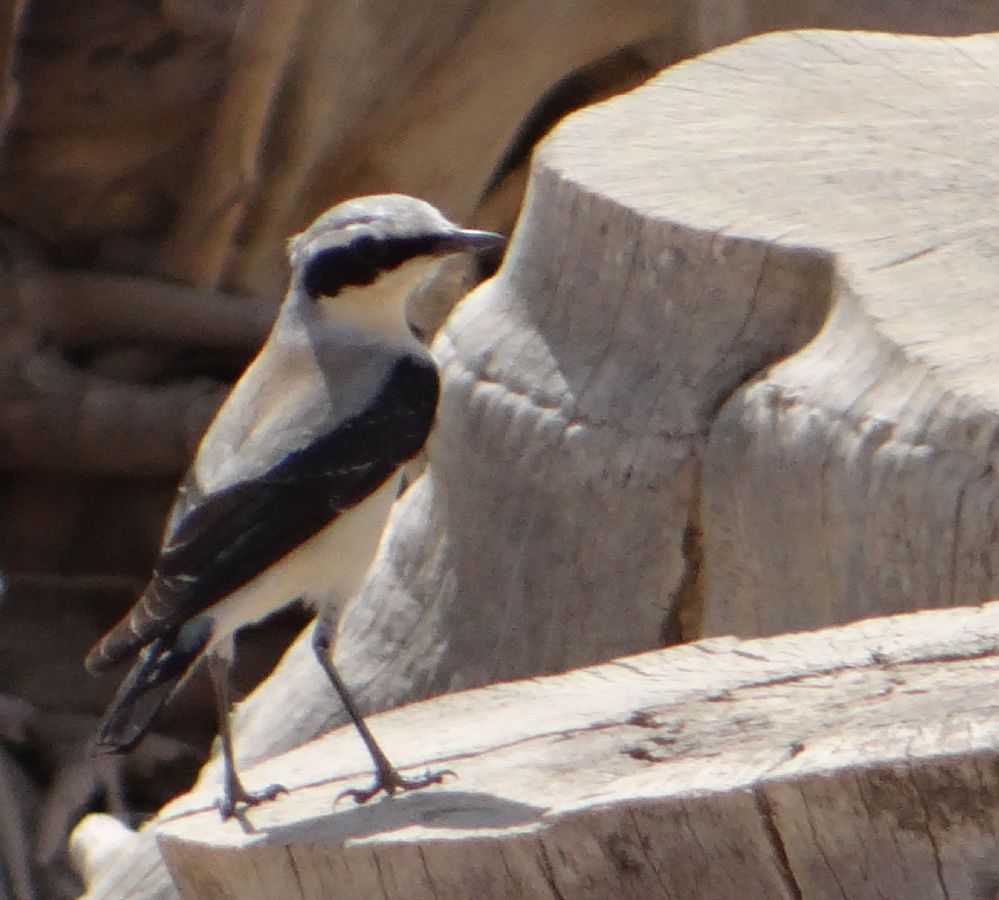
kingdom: Animalia
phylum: Chordata
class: Aves
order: Passeriformes
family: Muscicapidae
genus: Oenanthe
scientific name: Oenanthe oenanthe
